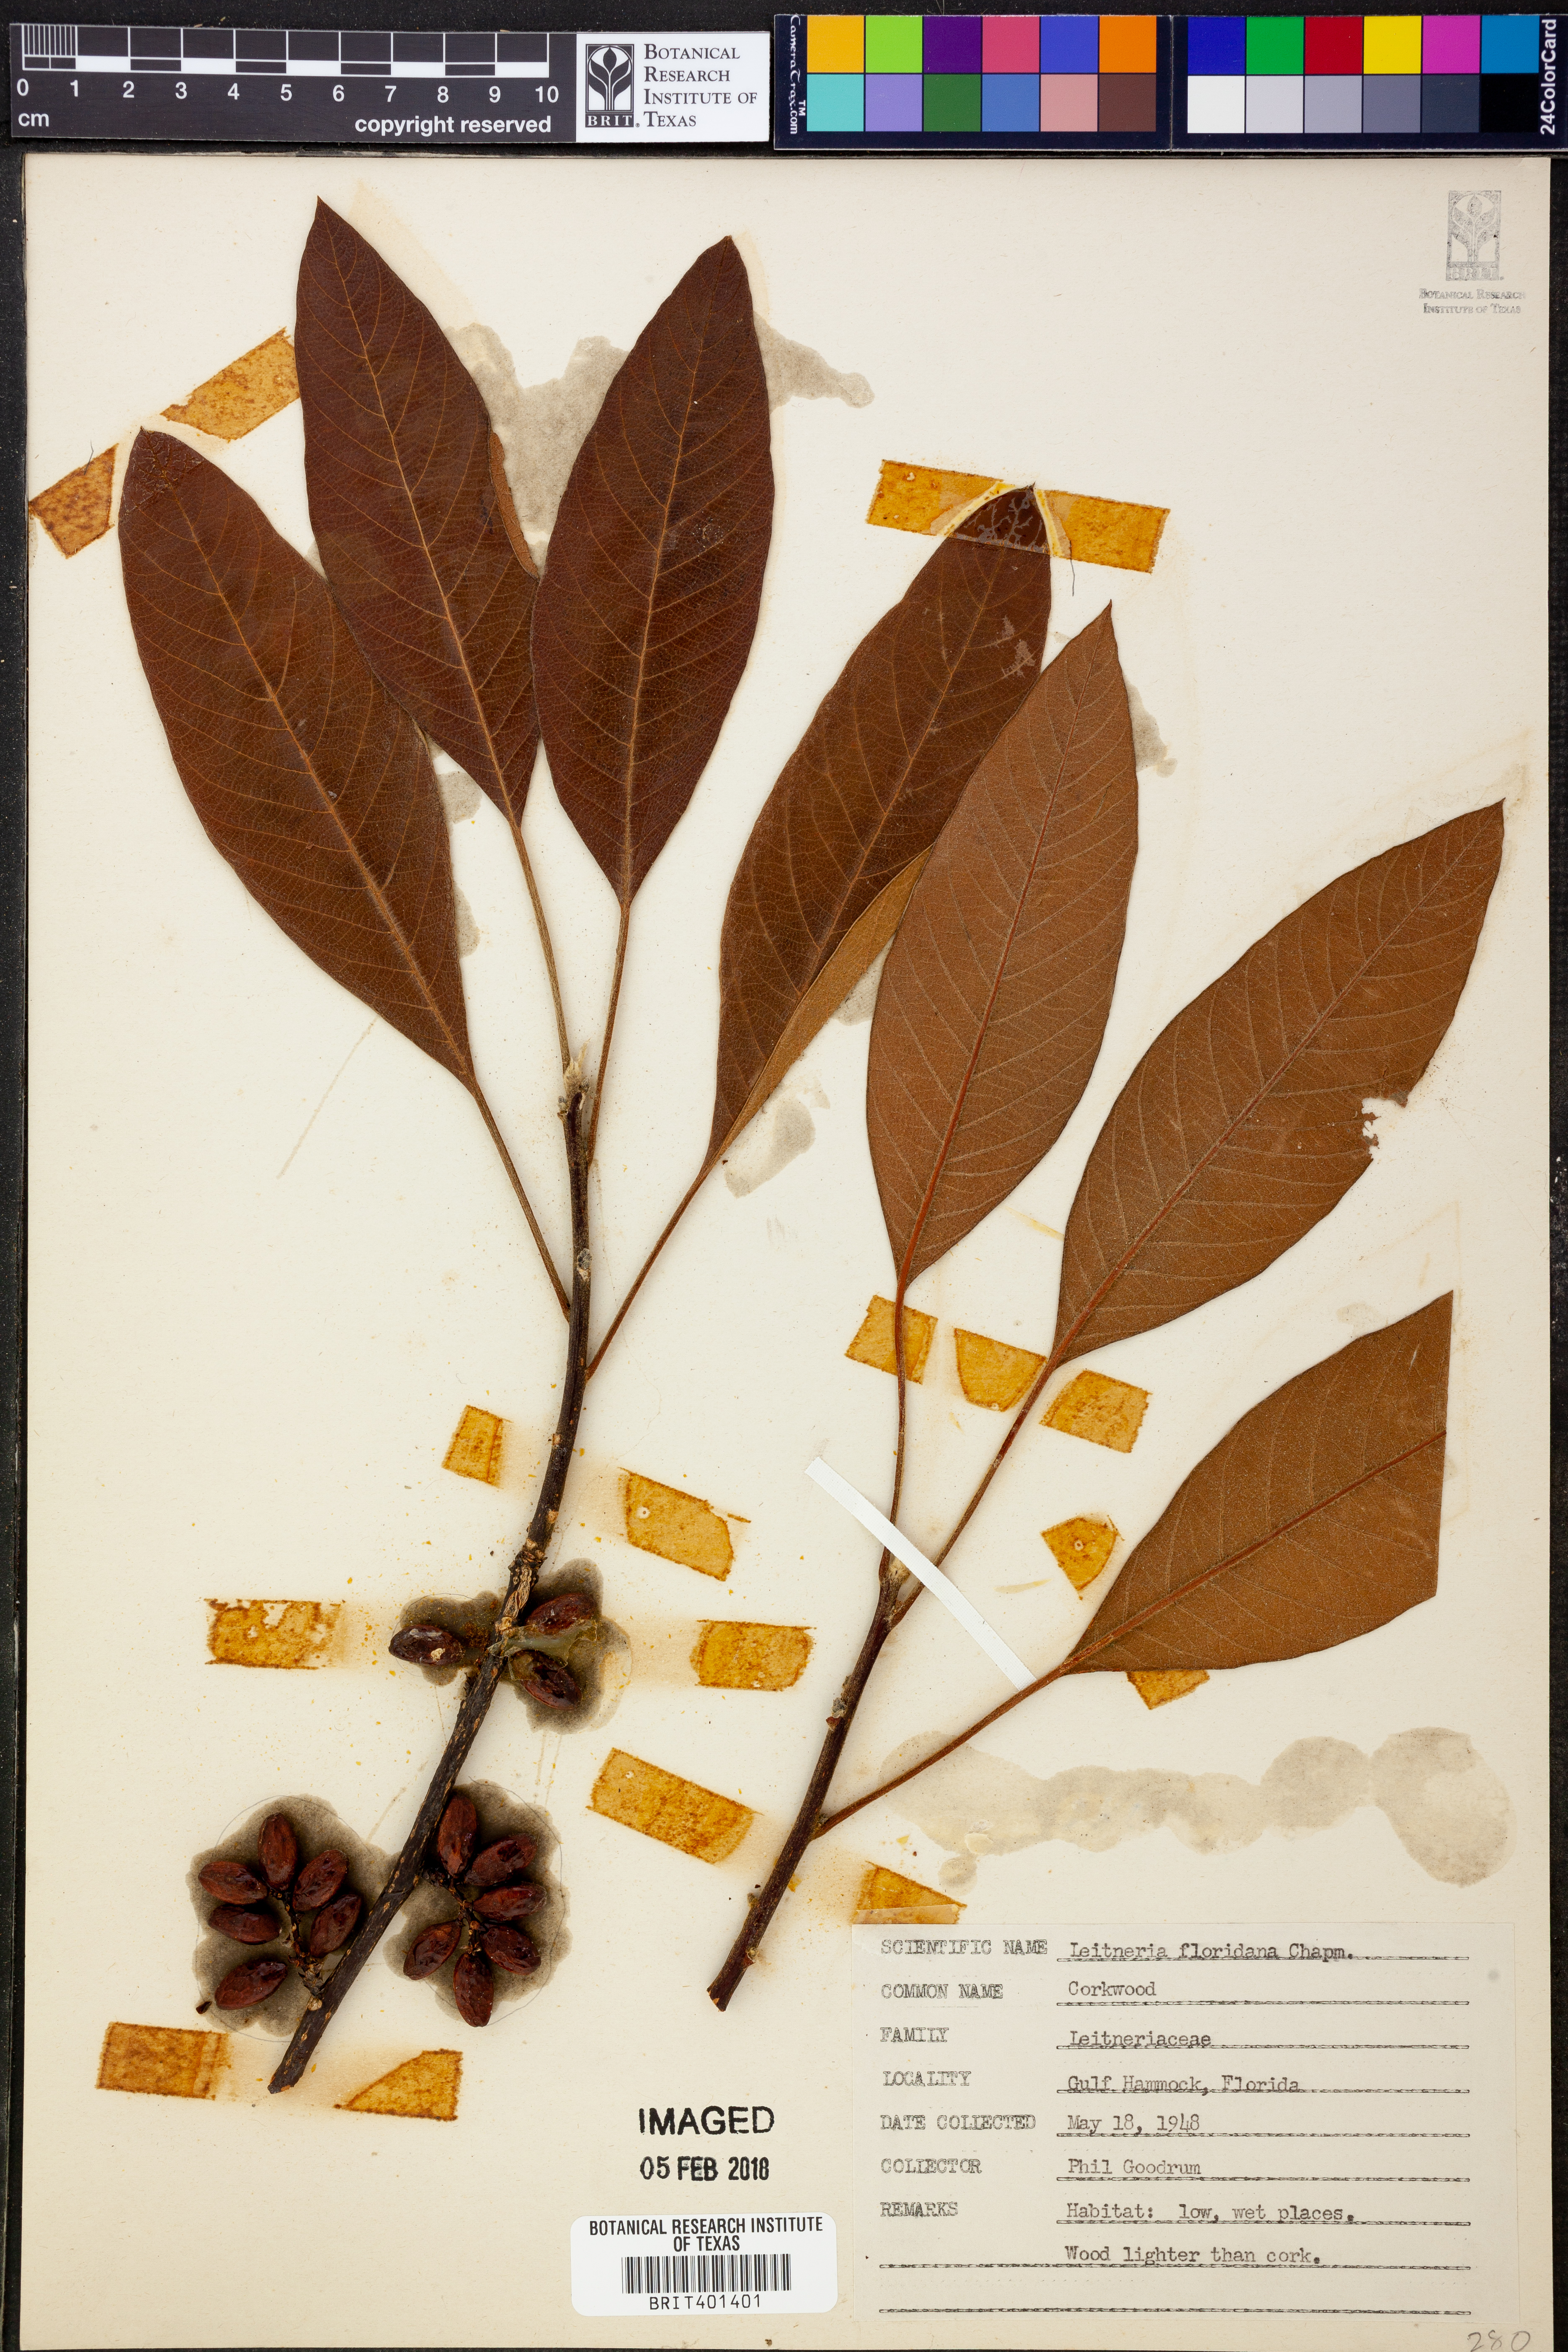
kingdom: Plantae
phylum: Tracheophyta
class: Magnoliopsida
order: Sapindales
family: Simaroubaceae
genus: Leitneria
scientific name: Leitneria floridana
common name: Corkwood
